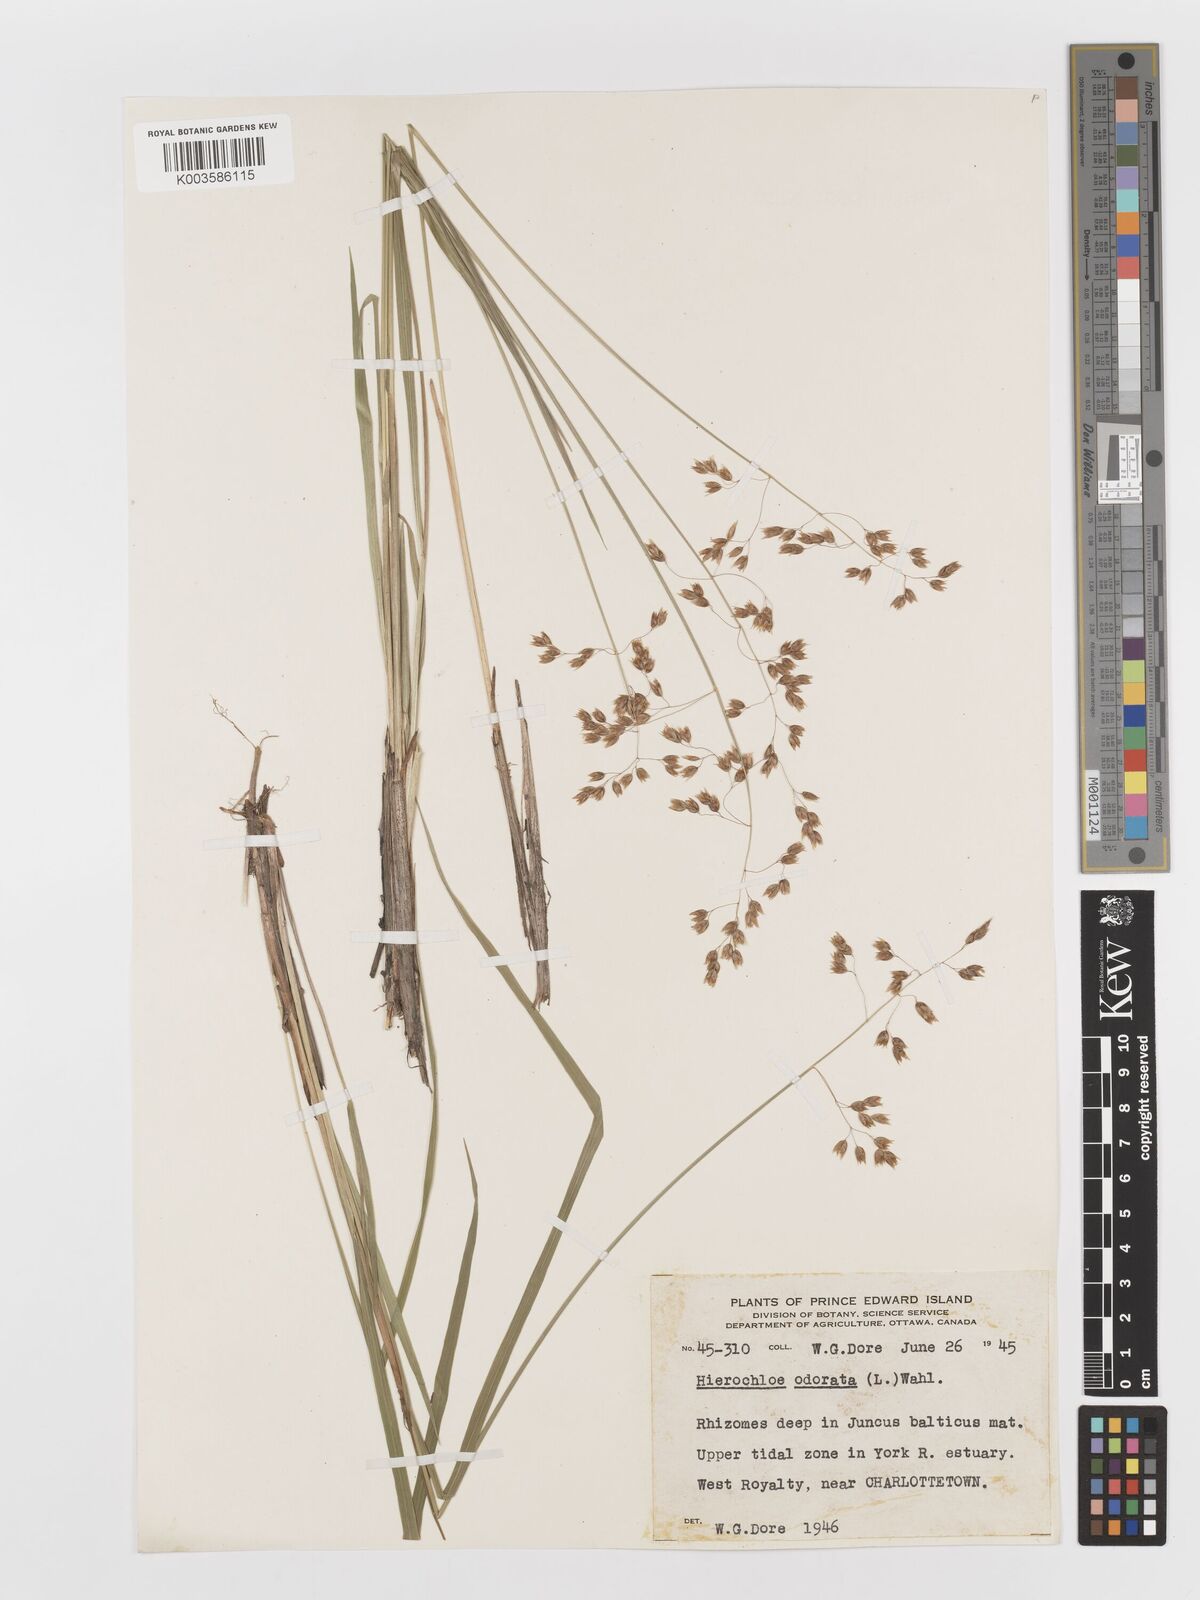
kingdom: Plantae
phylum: Tracheophyta
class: Liliopsida
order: Poales
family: Poaceae
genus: Anthoxanthum
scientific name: Anthoxanthum nitens
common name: Holy grass
